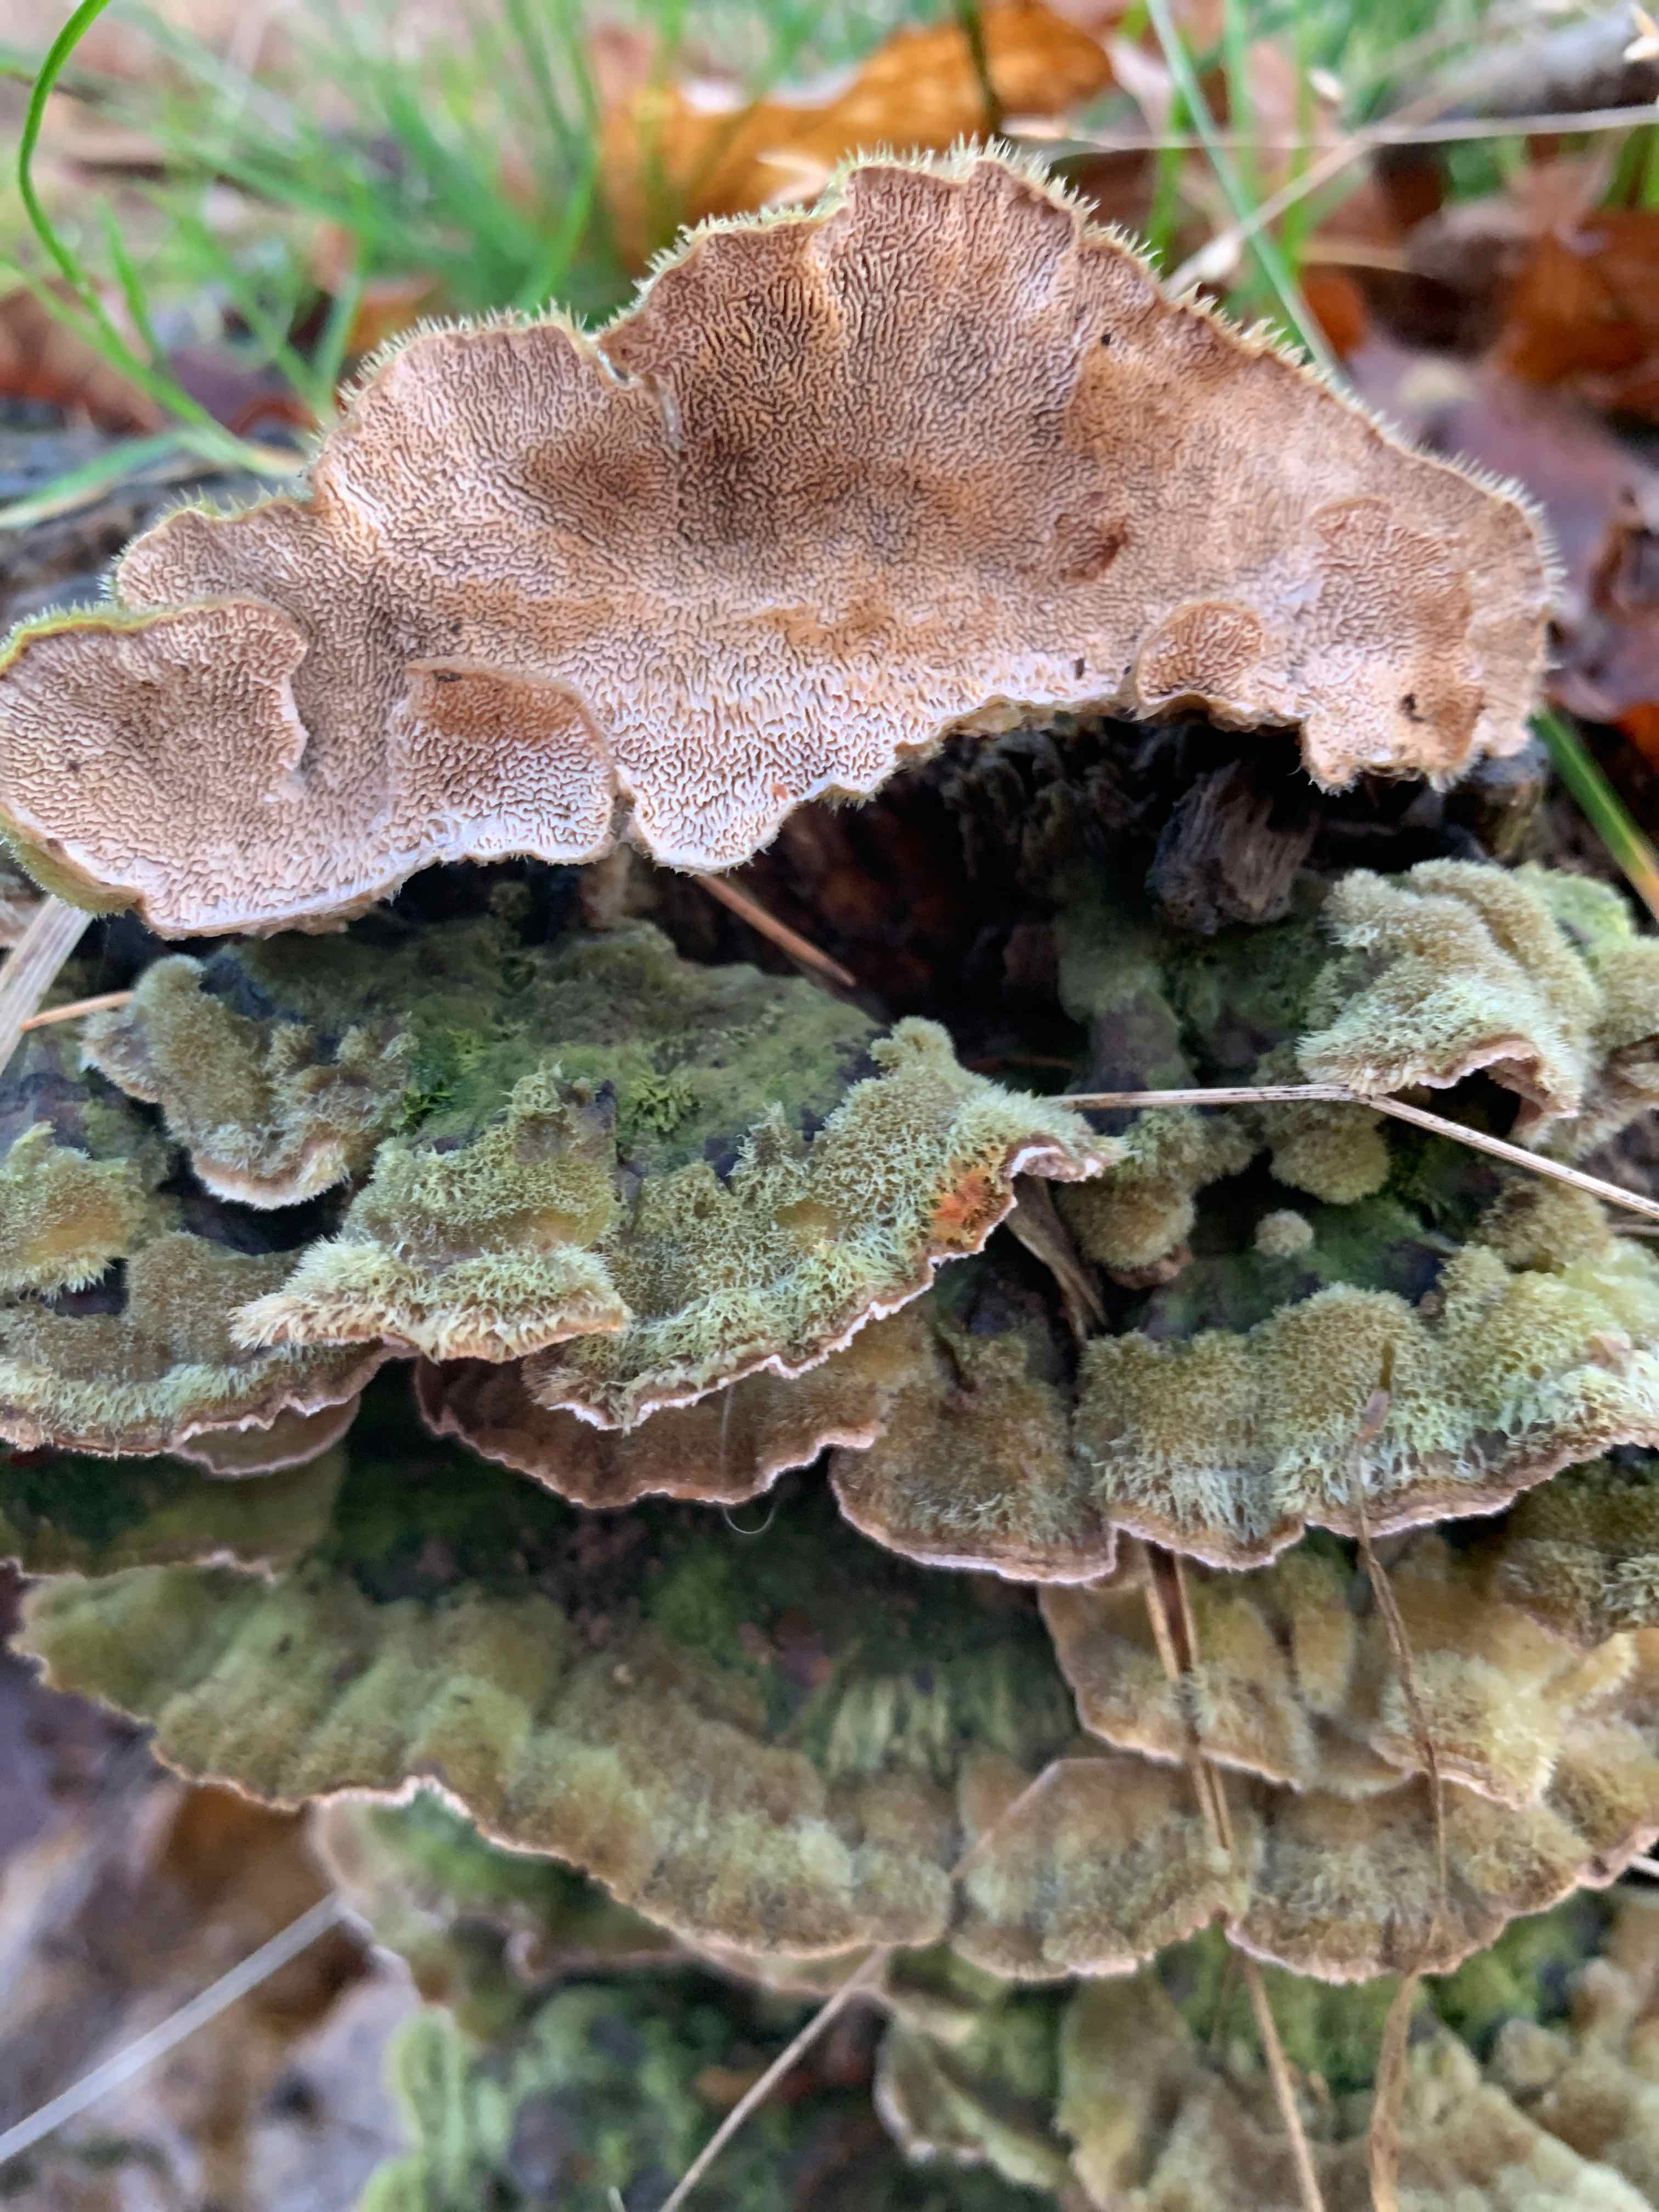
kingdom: Fungi
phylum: Basidiomycota
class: Agaricomycetes
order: Polyporales
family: Cerrenaceae
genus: Cerrena
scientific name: Cerrena unicolor
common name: ensfarvet læderporesvamp
